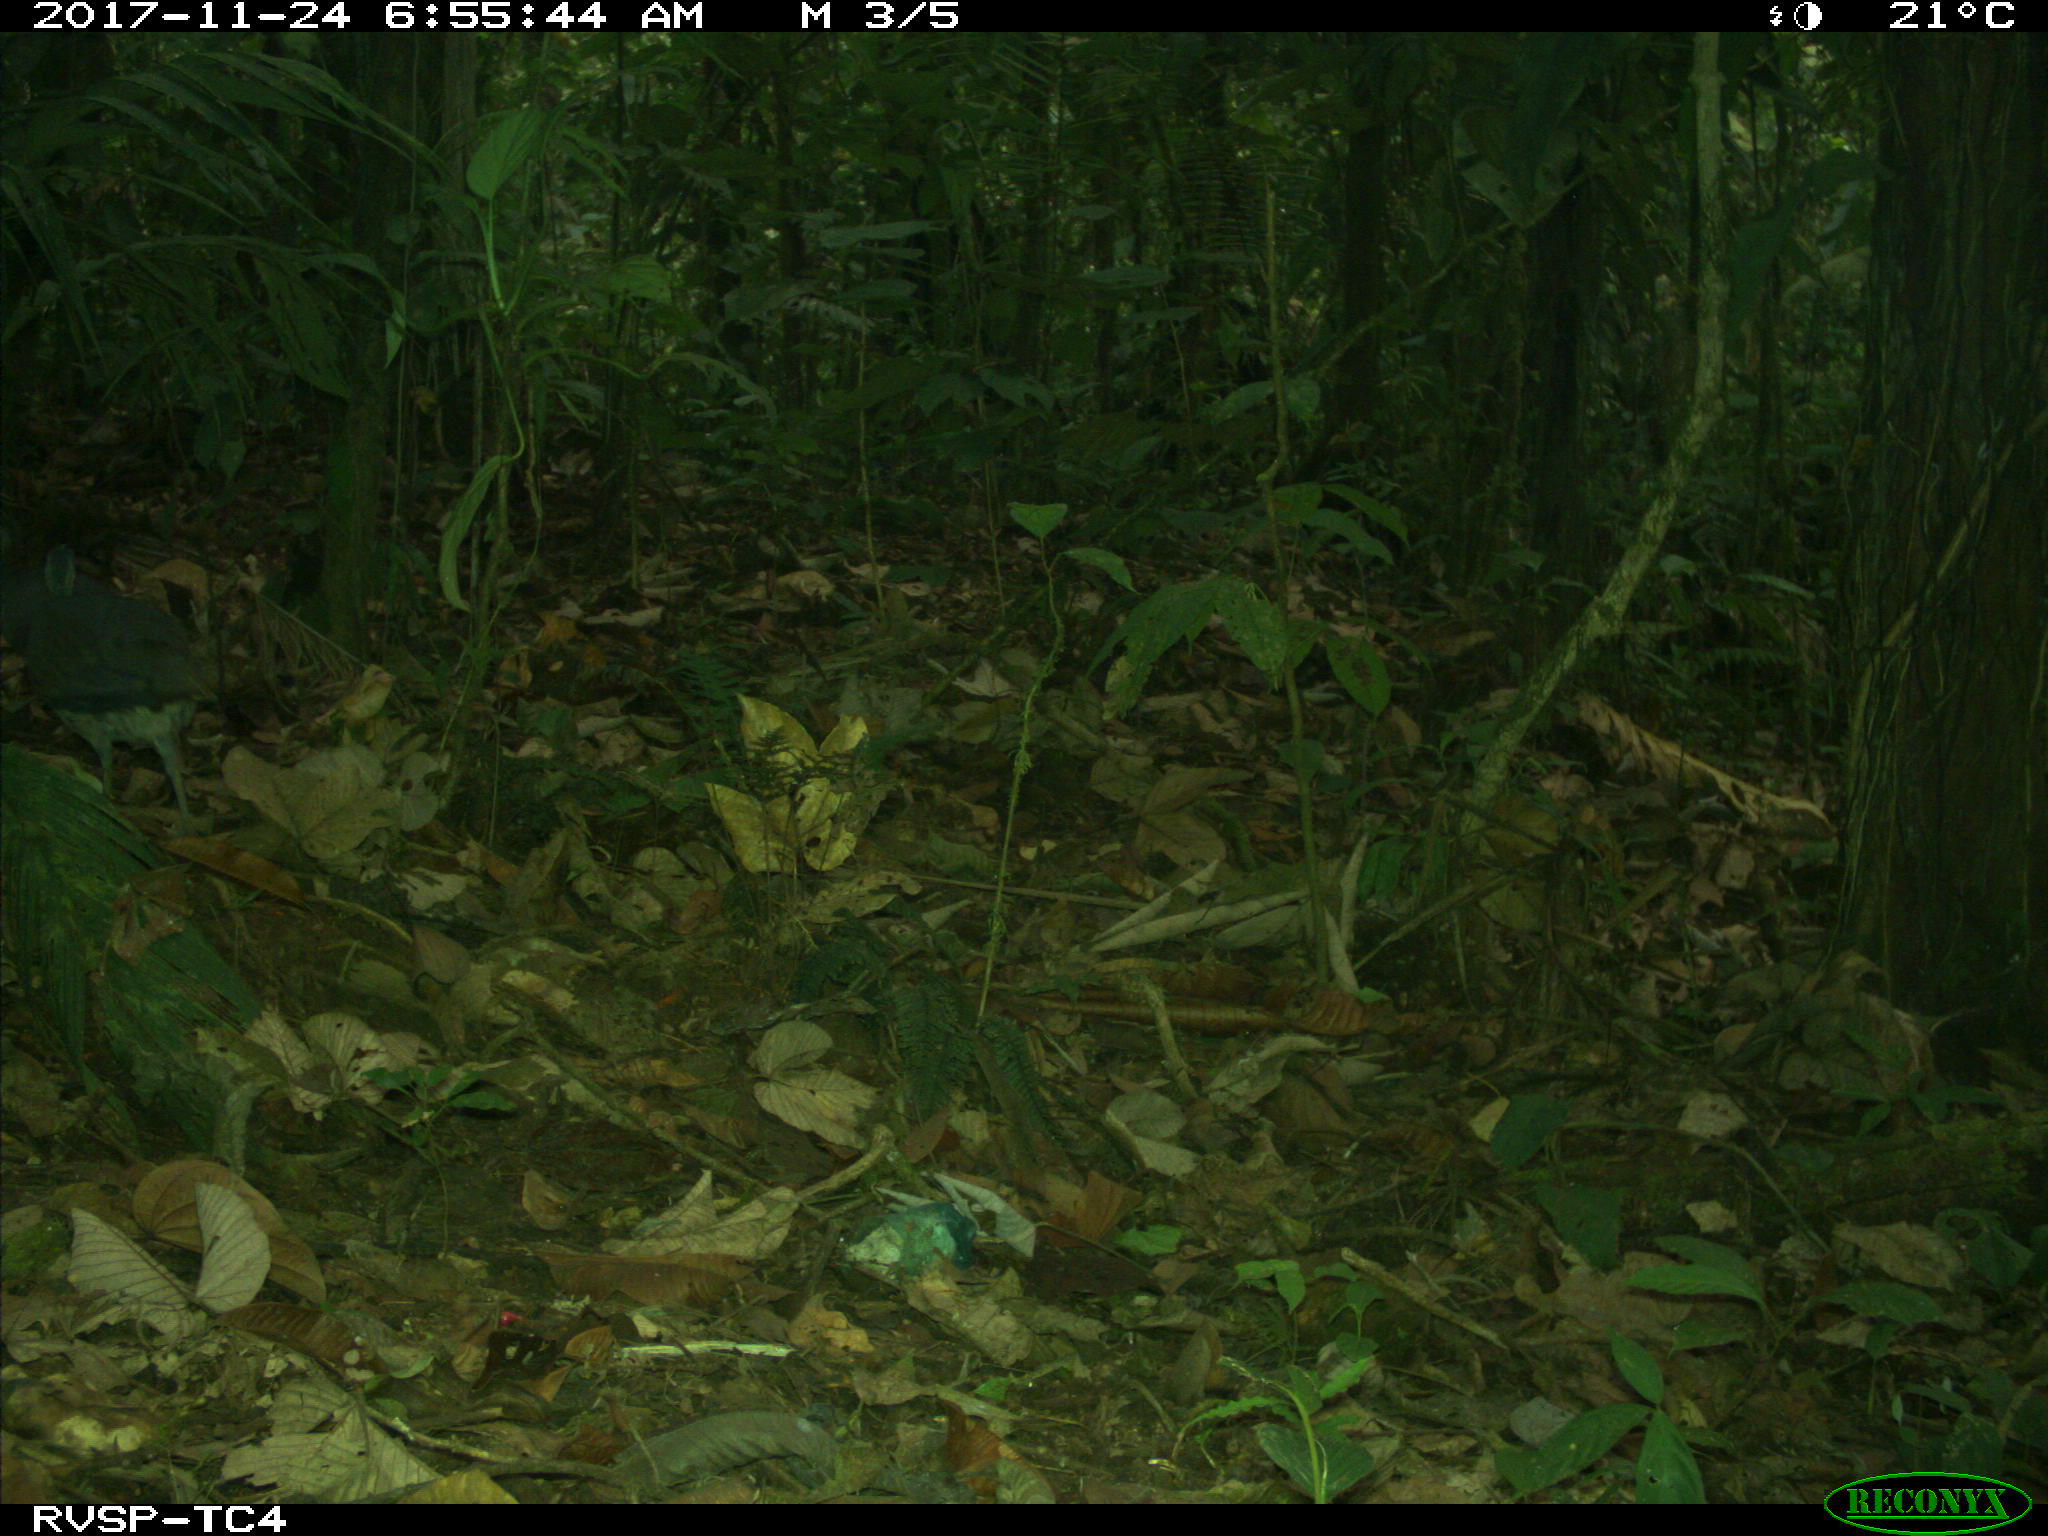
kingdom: Animalia
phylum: Chordata
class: Aves
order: Tinamiformes
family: Tinamidae
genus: Tinamus
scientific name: Tinamus major
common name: Great tinamou
